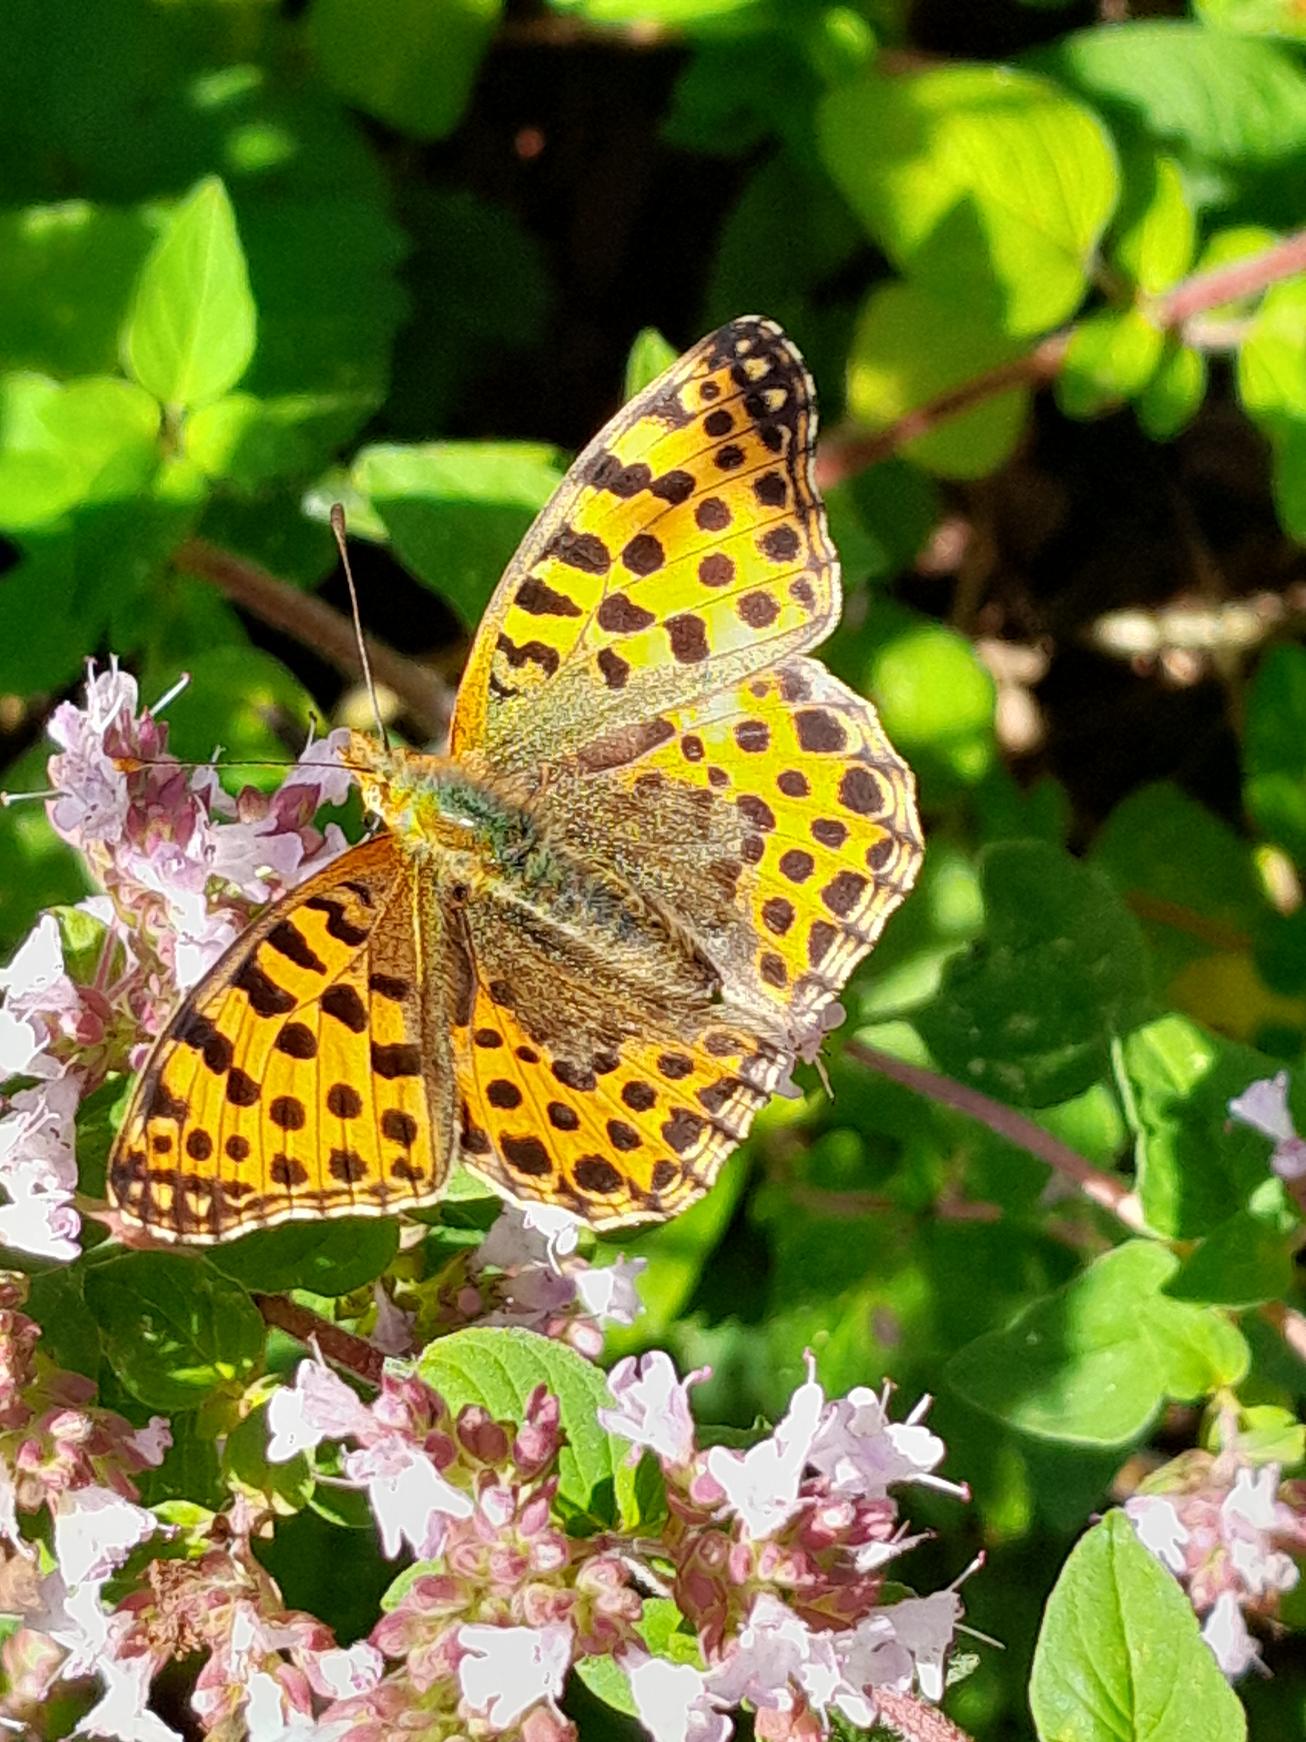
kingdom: Animalia
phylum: Arthropoda
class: Insecta
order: Lepidoptera
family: Nymphalidae
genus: Issoria
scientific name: Issoria lathonia
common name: Storplettet perlemorsommerfugl
